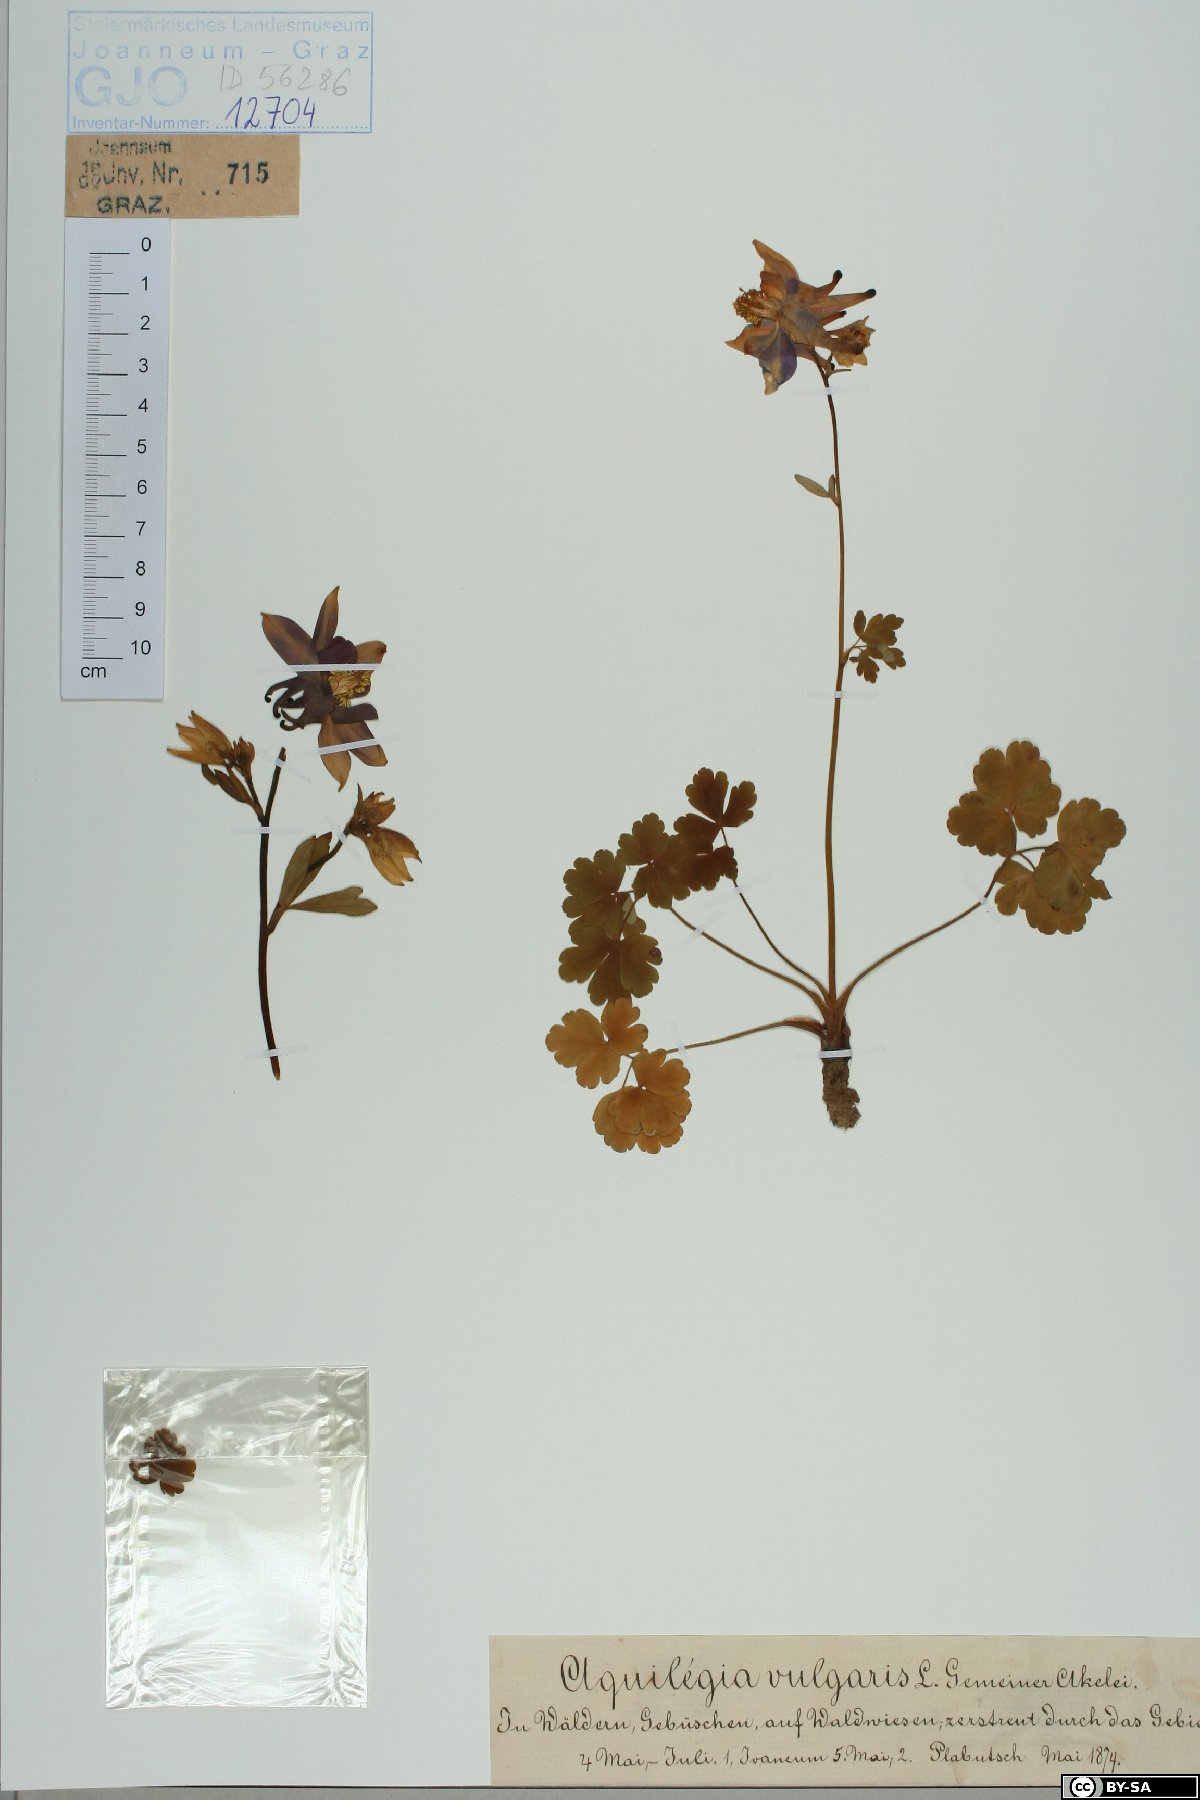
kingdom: Plantae
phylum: Tracheophyta
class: Magnoliopsida
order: Ranunculales
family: Ranunculaceae
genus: Aquilegia
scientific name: Aquilegia vulgaris
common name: Columbine
